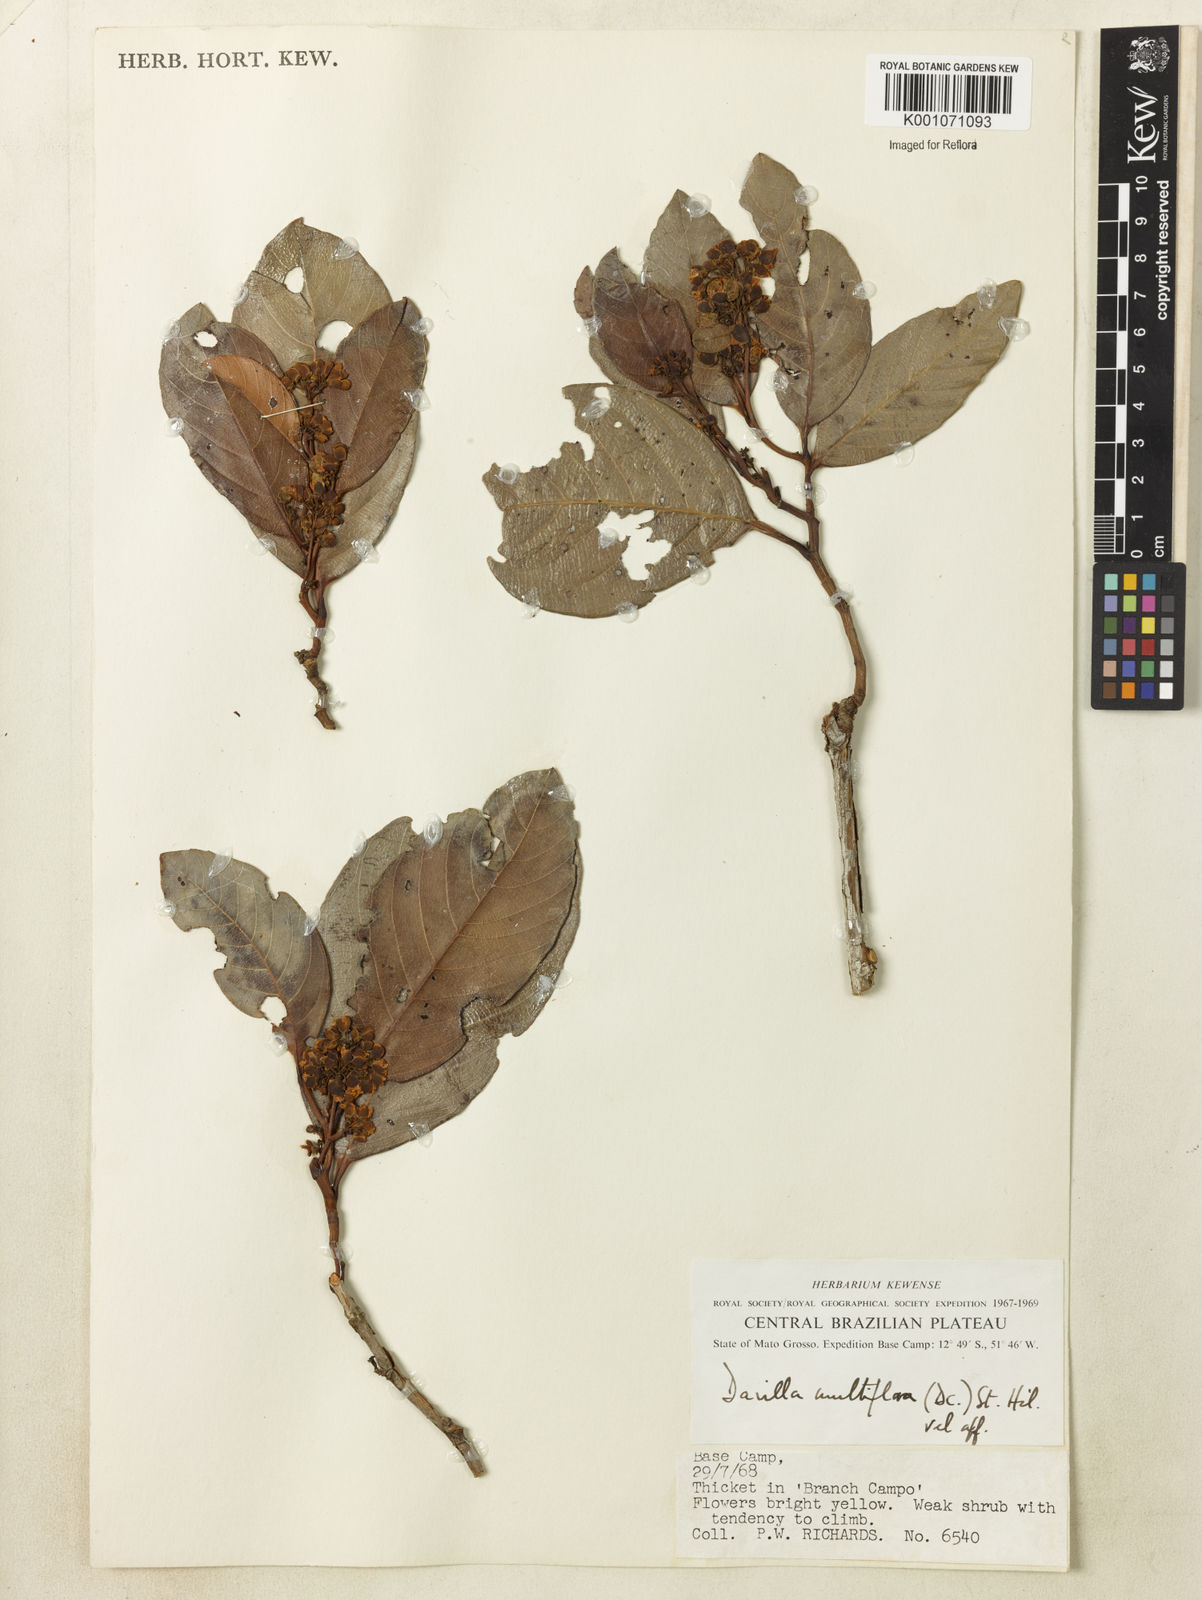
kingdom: Plantae
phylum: Tracheophyta
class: Magnoliopsida
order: Dilleniales
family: Dilleniaceae
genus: Davilla
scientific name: Davilla nitida
